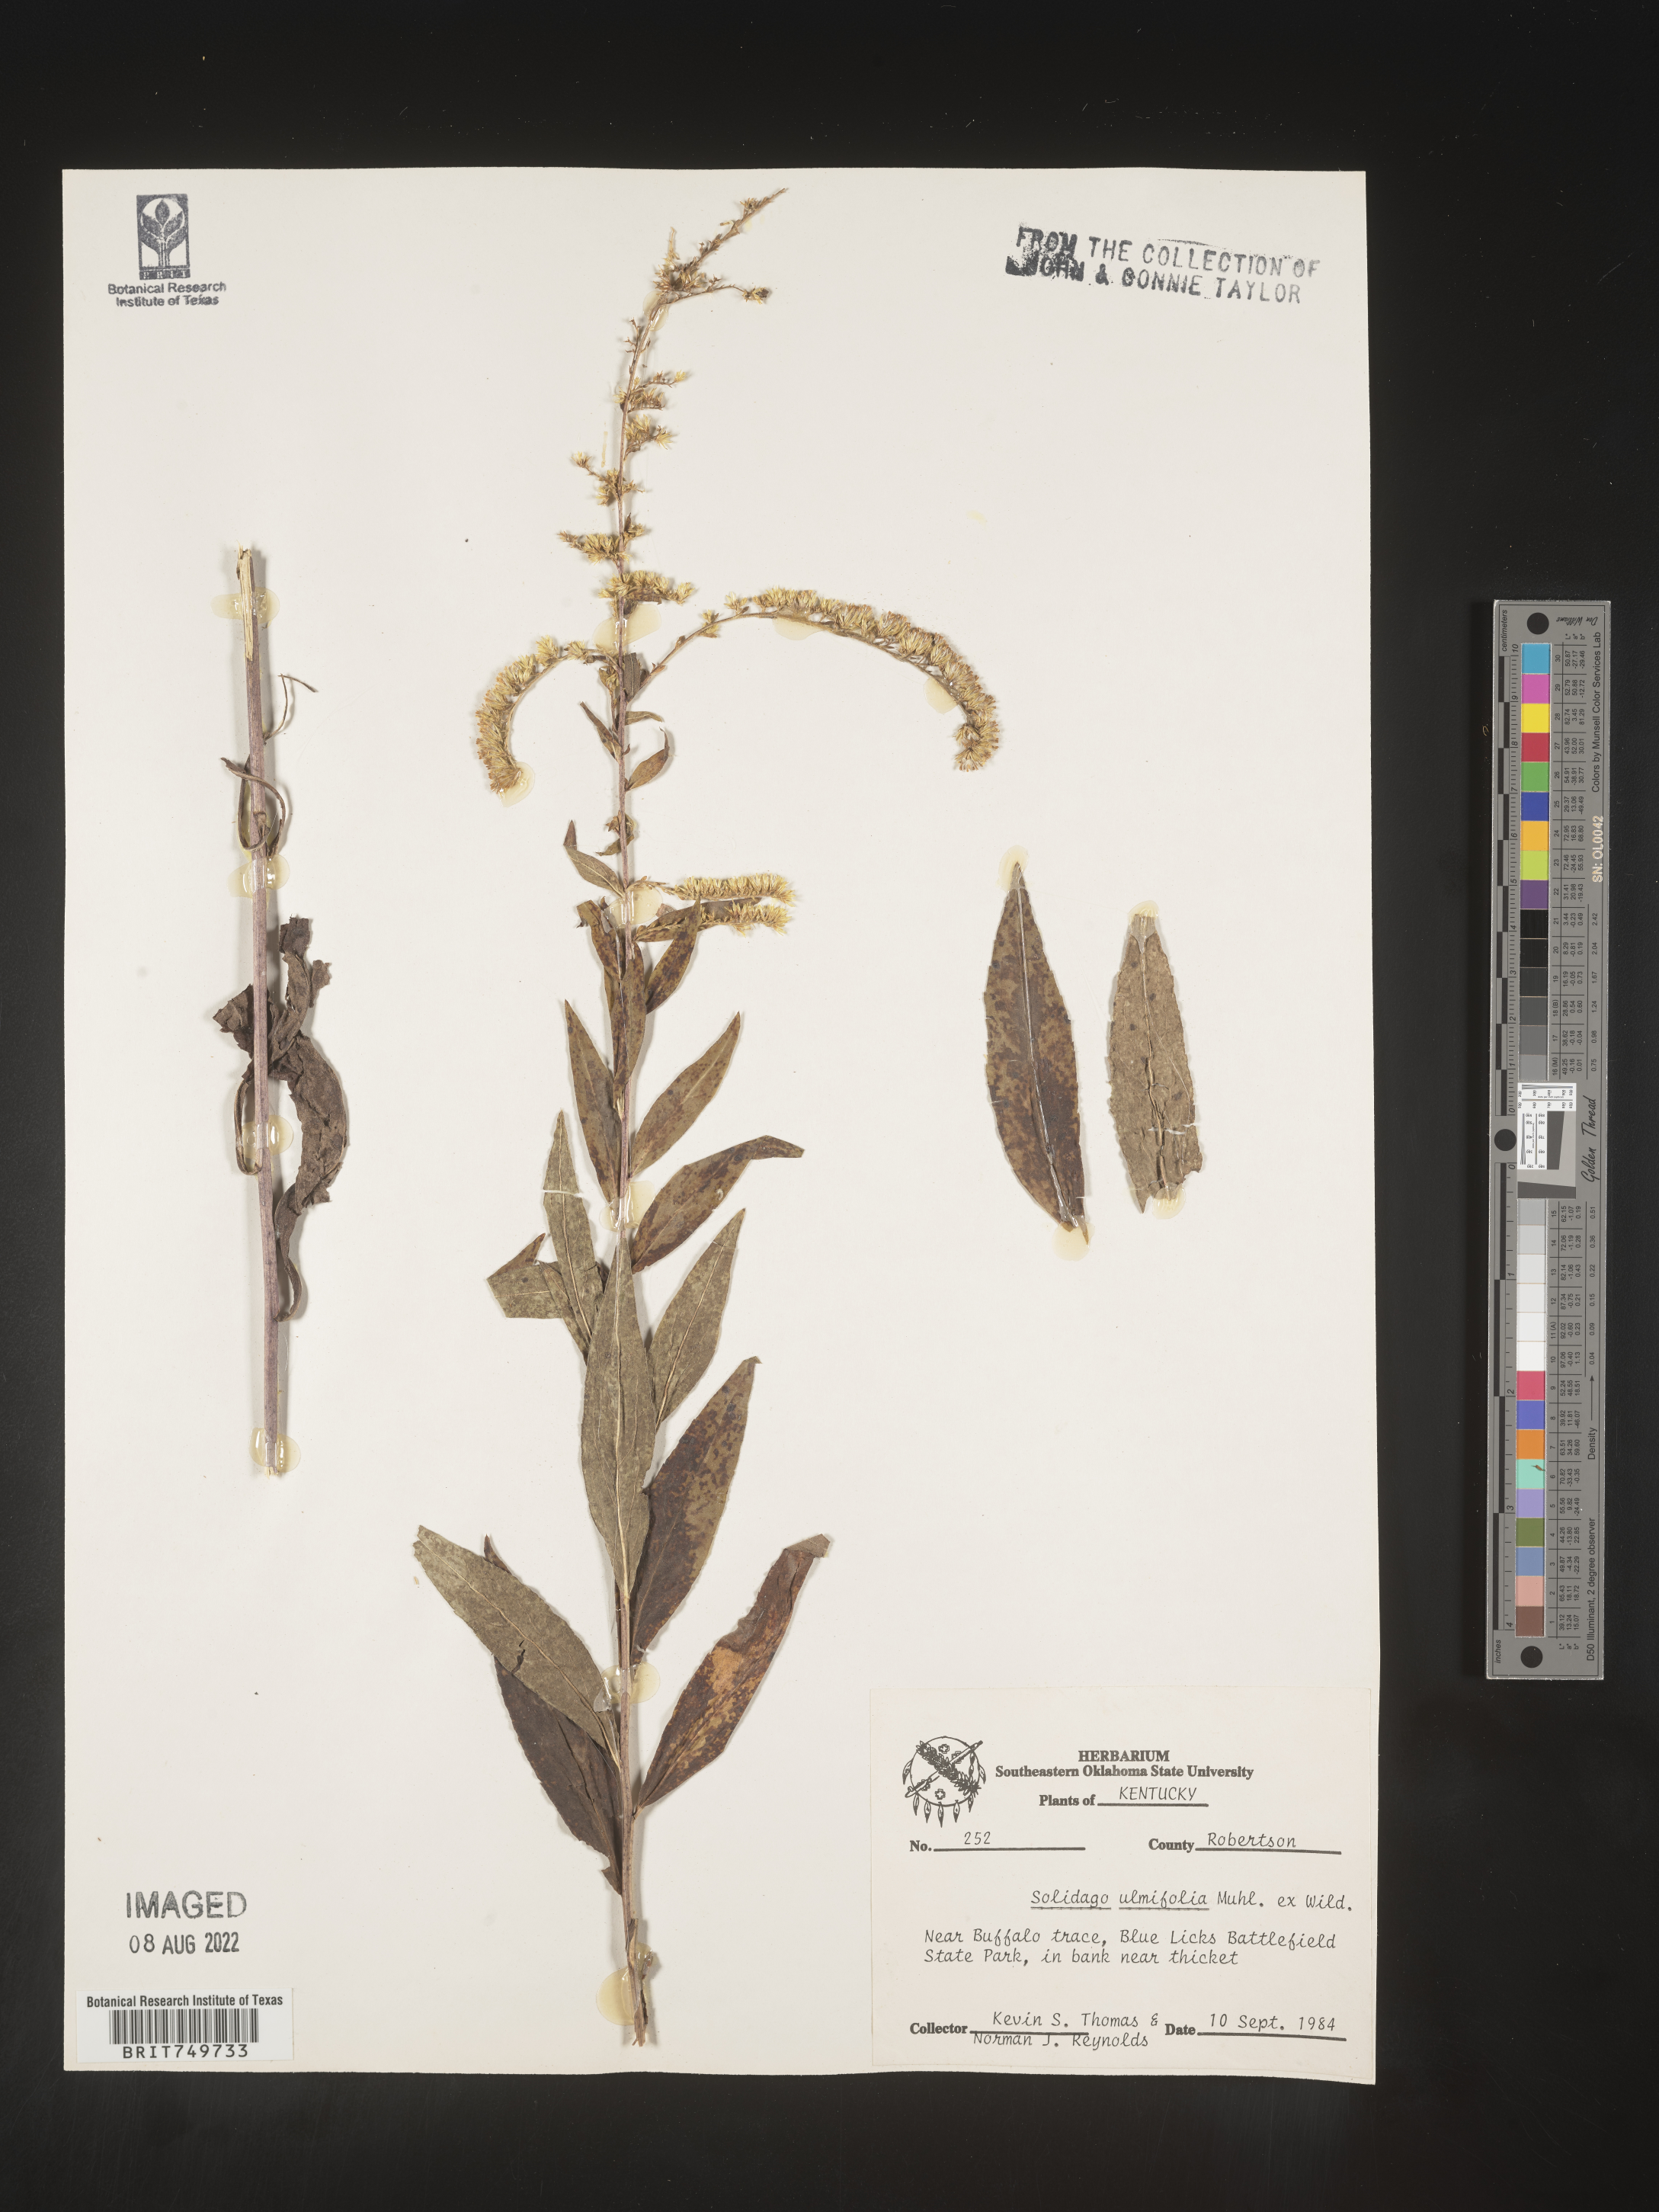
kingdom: Plantae
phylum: Tracheophyta
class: Magnoliopsida
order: Asterales
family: Asteraceae
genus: Solidago
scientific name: Solidago ulmifolia
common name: Elm-leaf goldenrod
